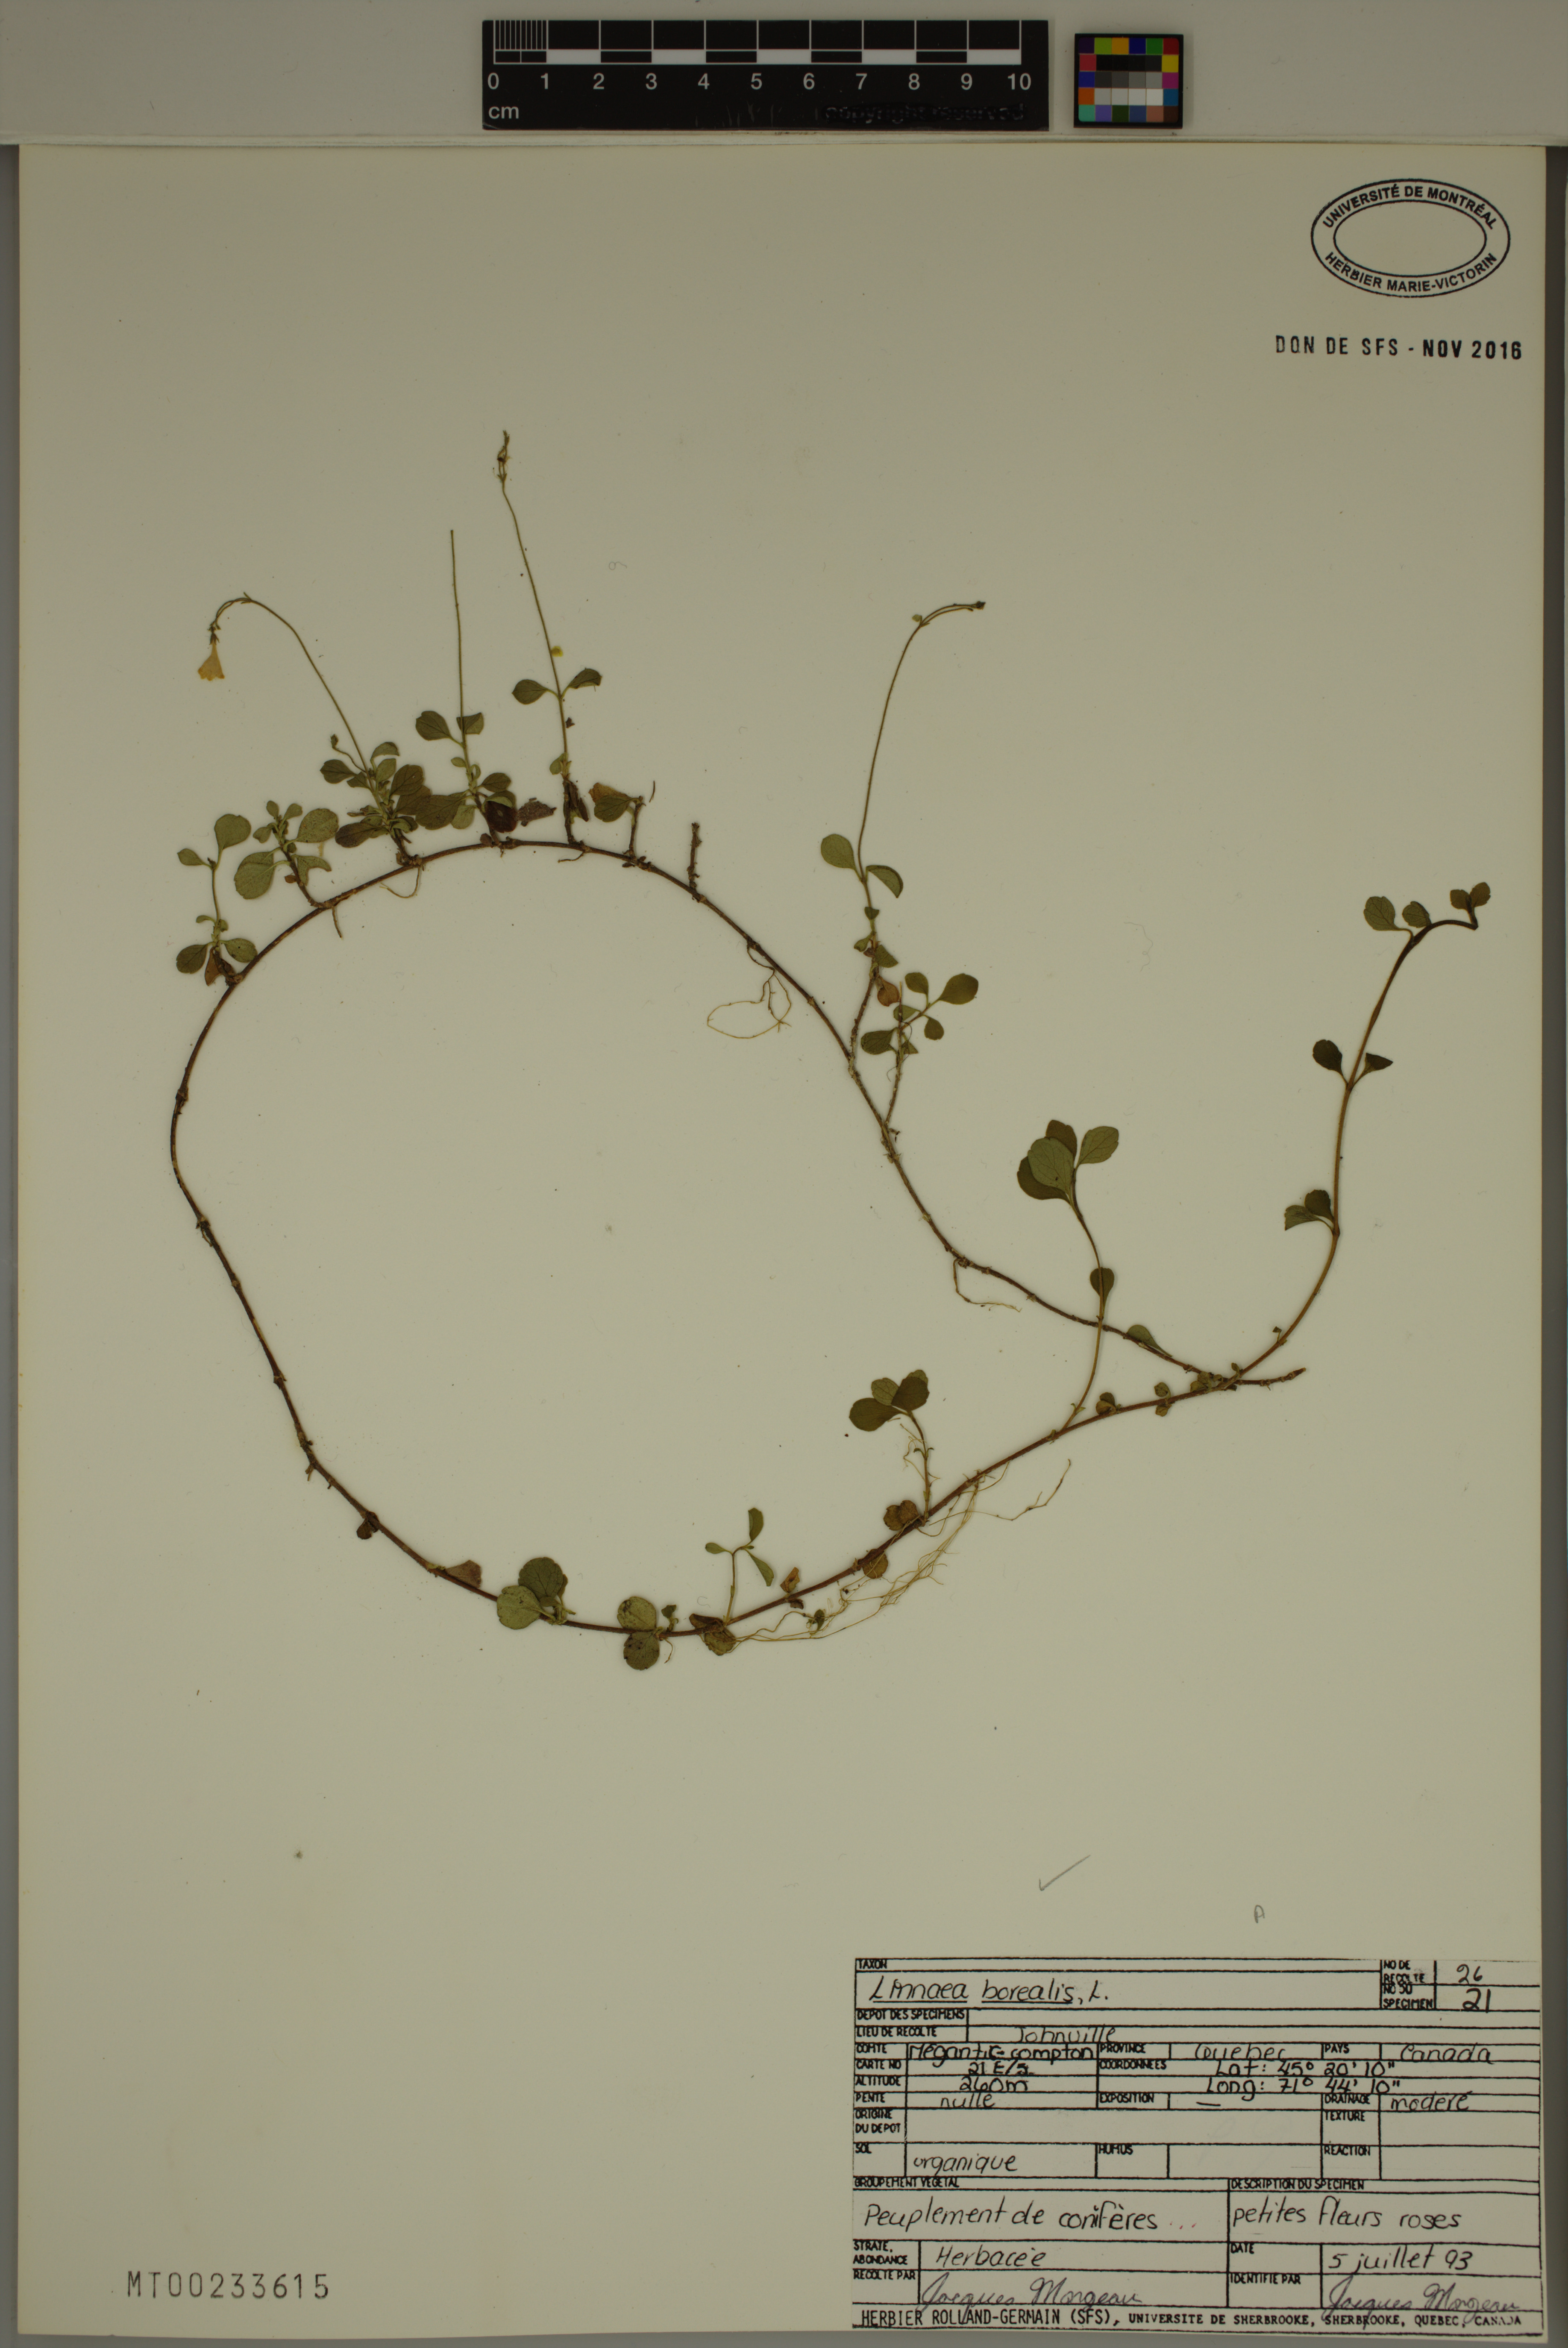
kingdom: Plantae
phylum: Tracheophyta
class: Magnoliopsida
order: Dipsacales
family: Caprifoliaceae
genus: Linnaea
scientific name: Linnaea borealis
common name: Twinflower
